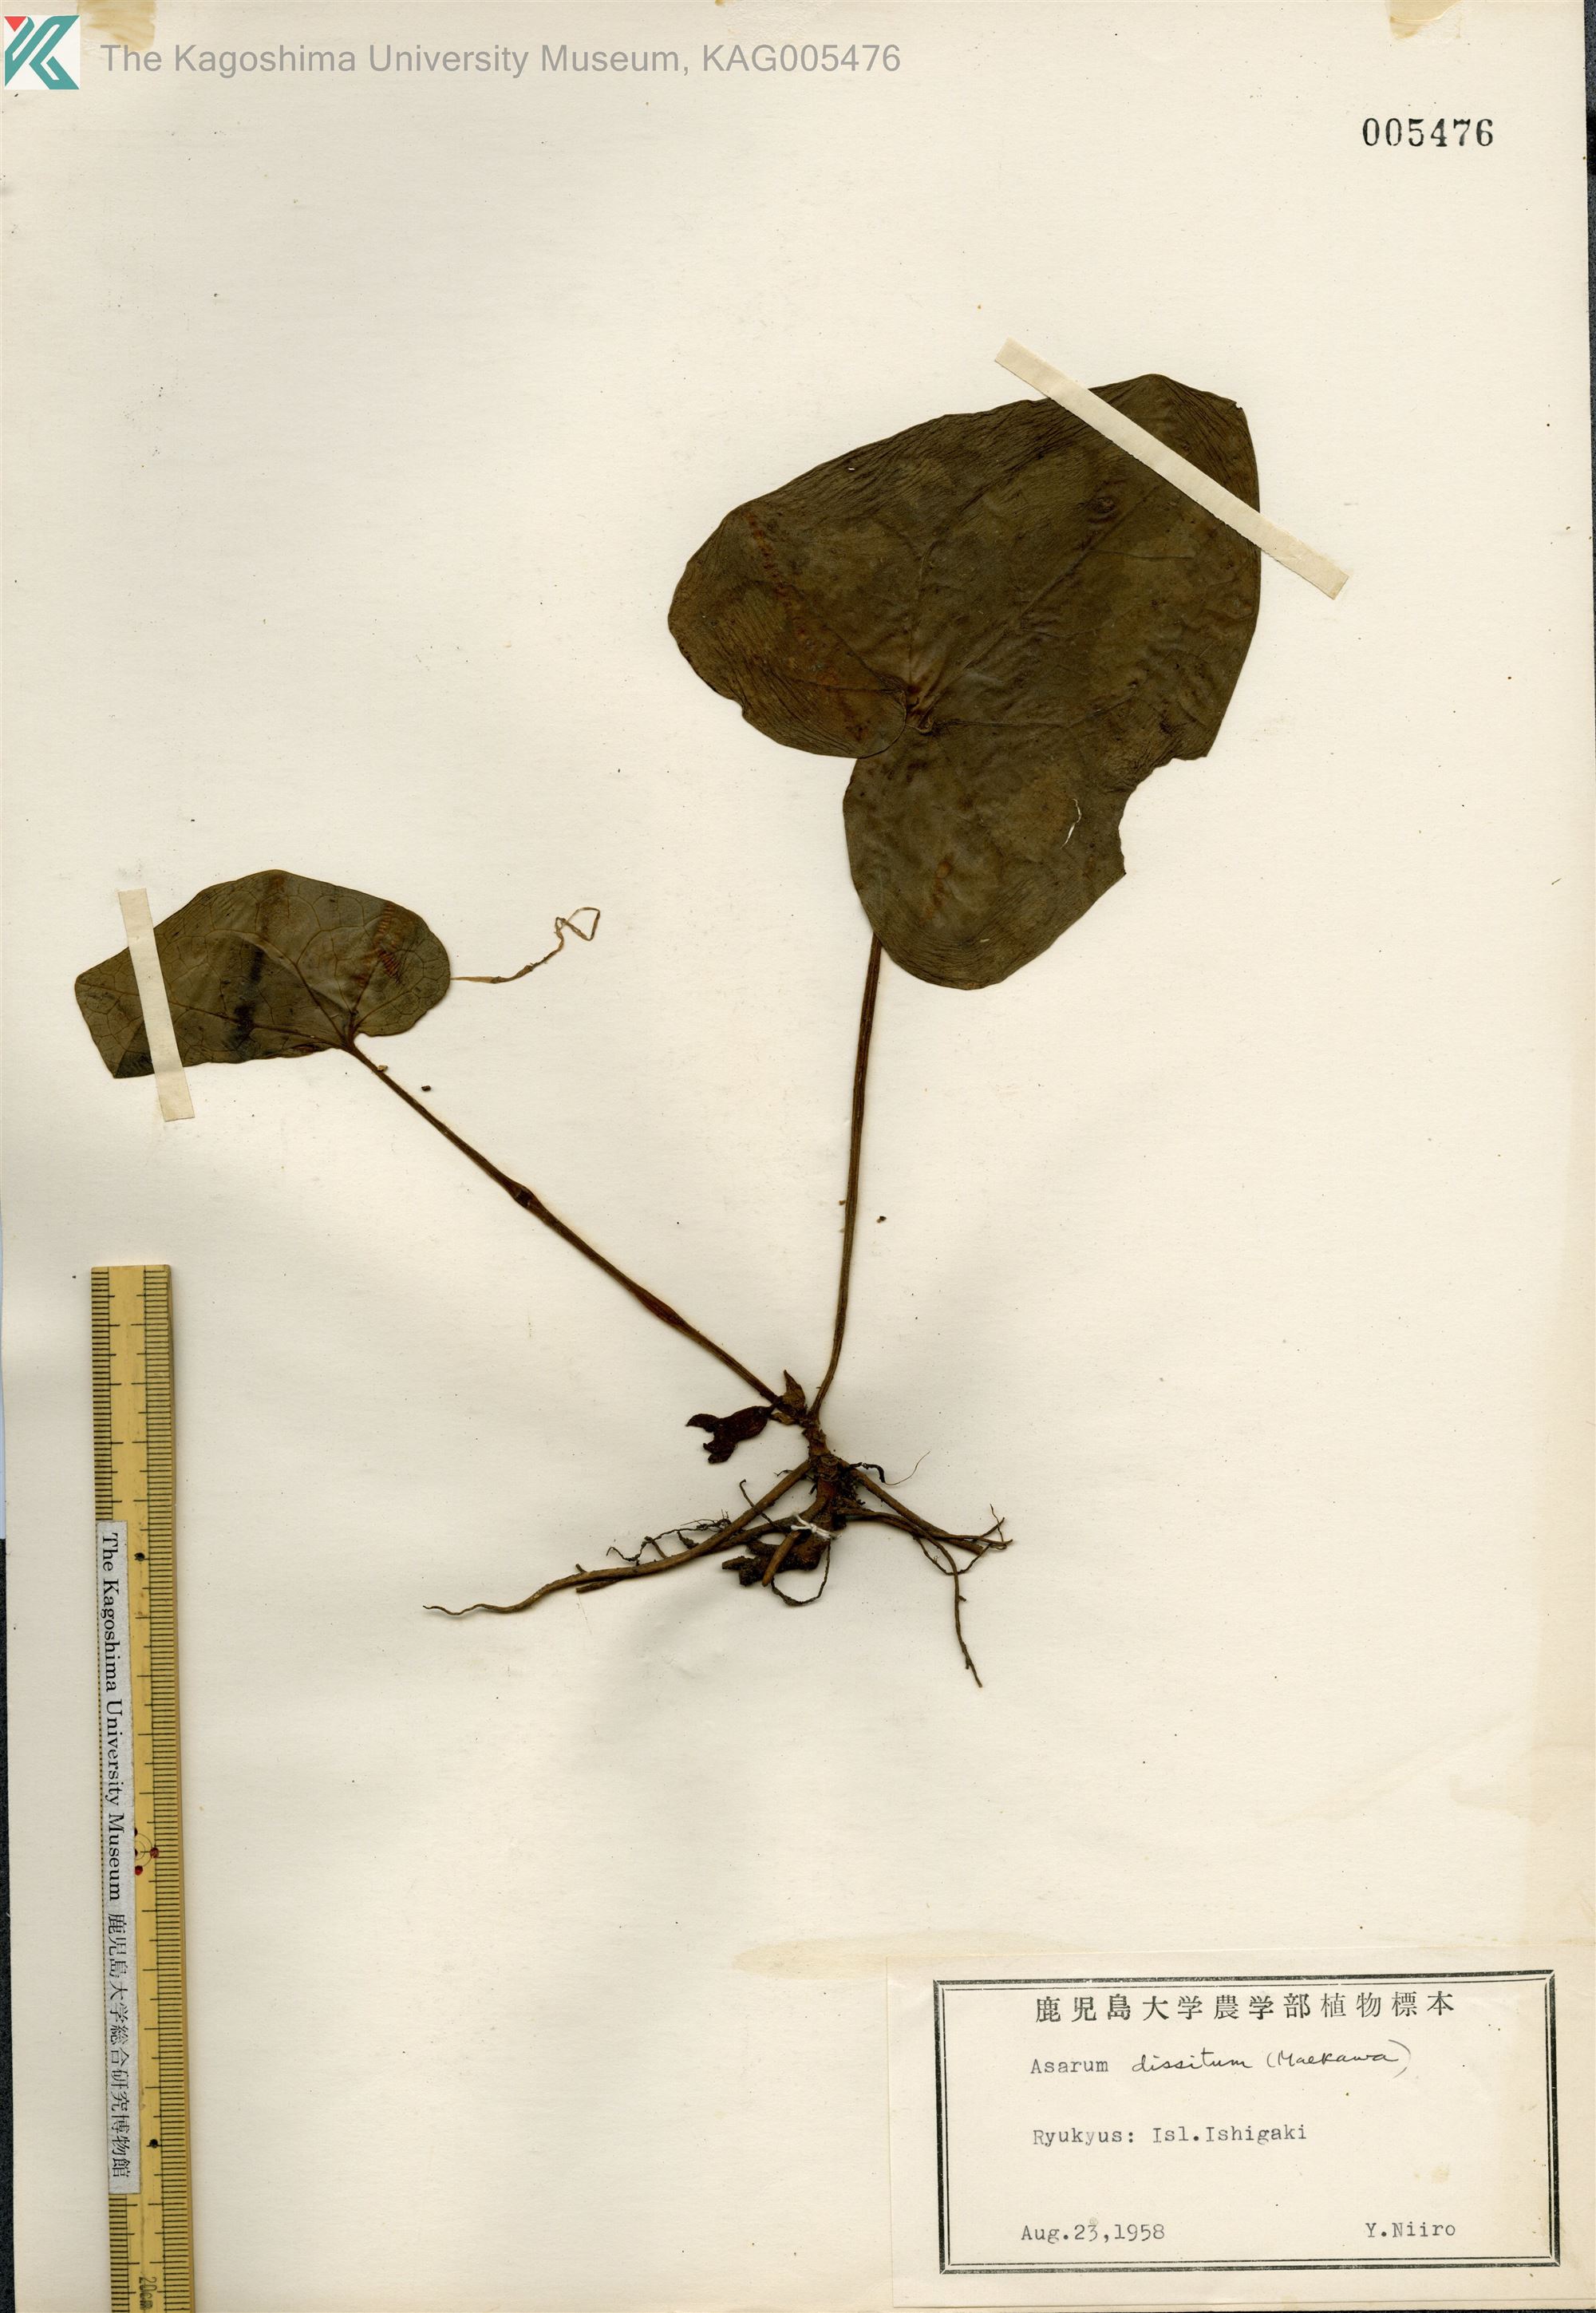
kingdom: Plantae
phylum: Tracheophyta
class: Magnoliopsida
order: Piperales
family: Aristolochiaceae
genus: Asarum
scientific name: Asarum dissitum
